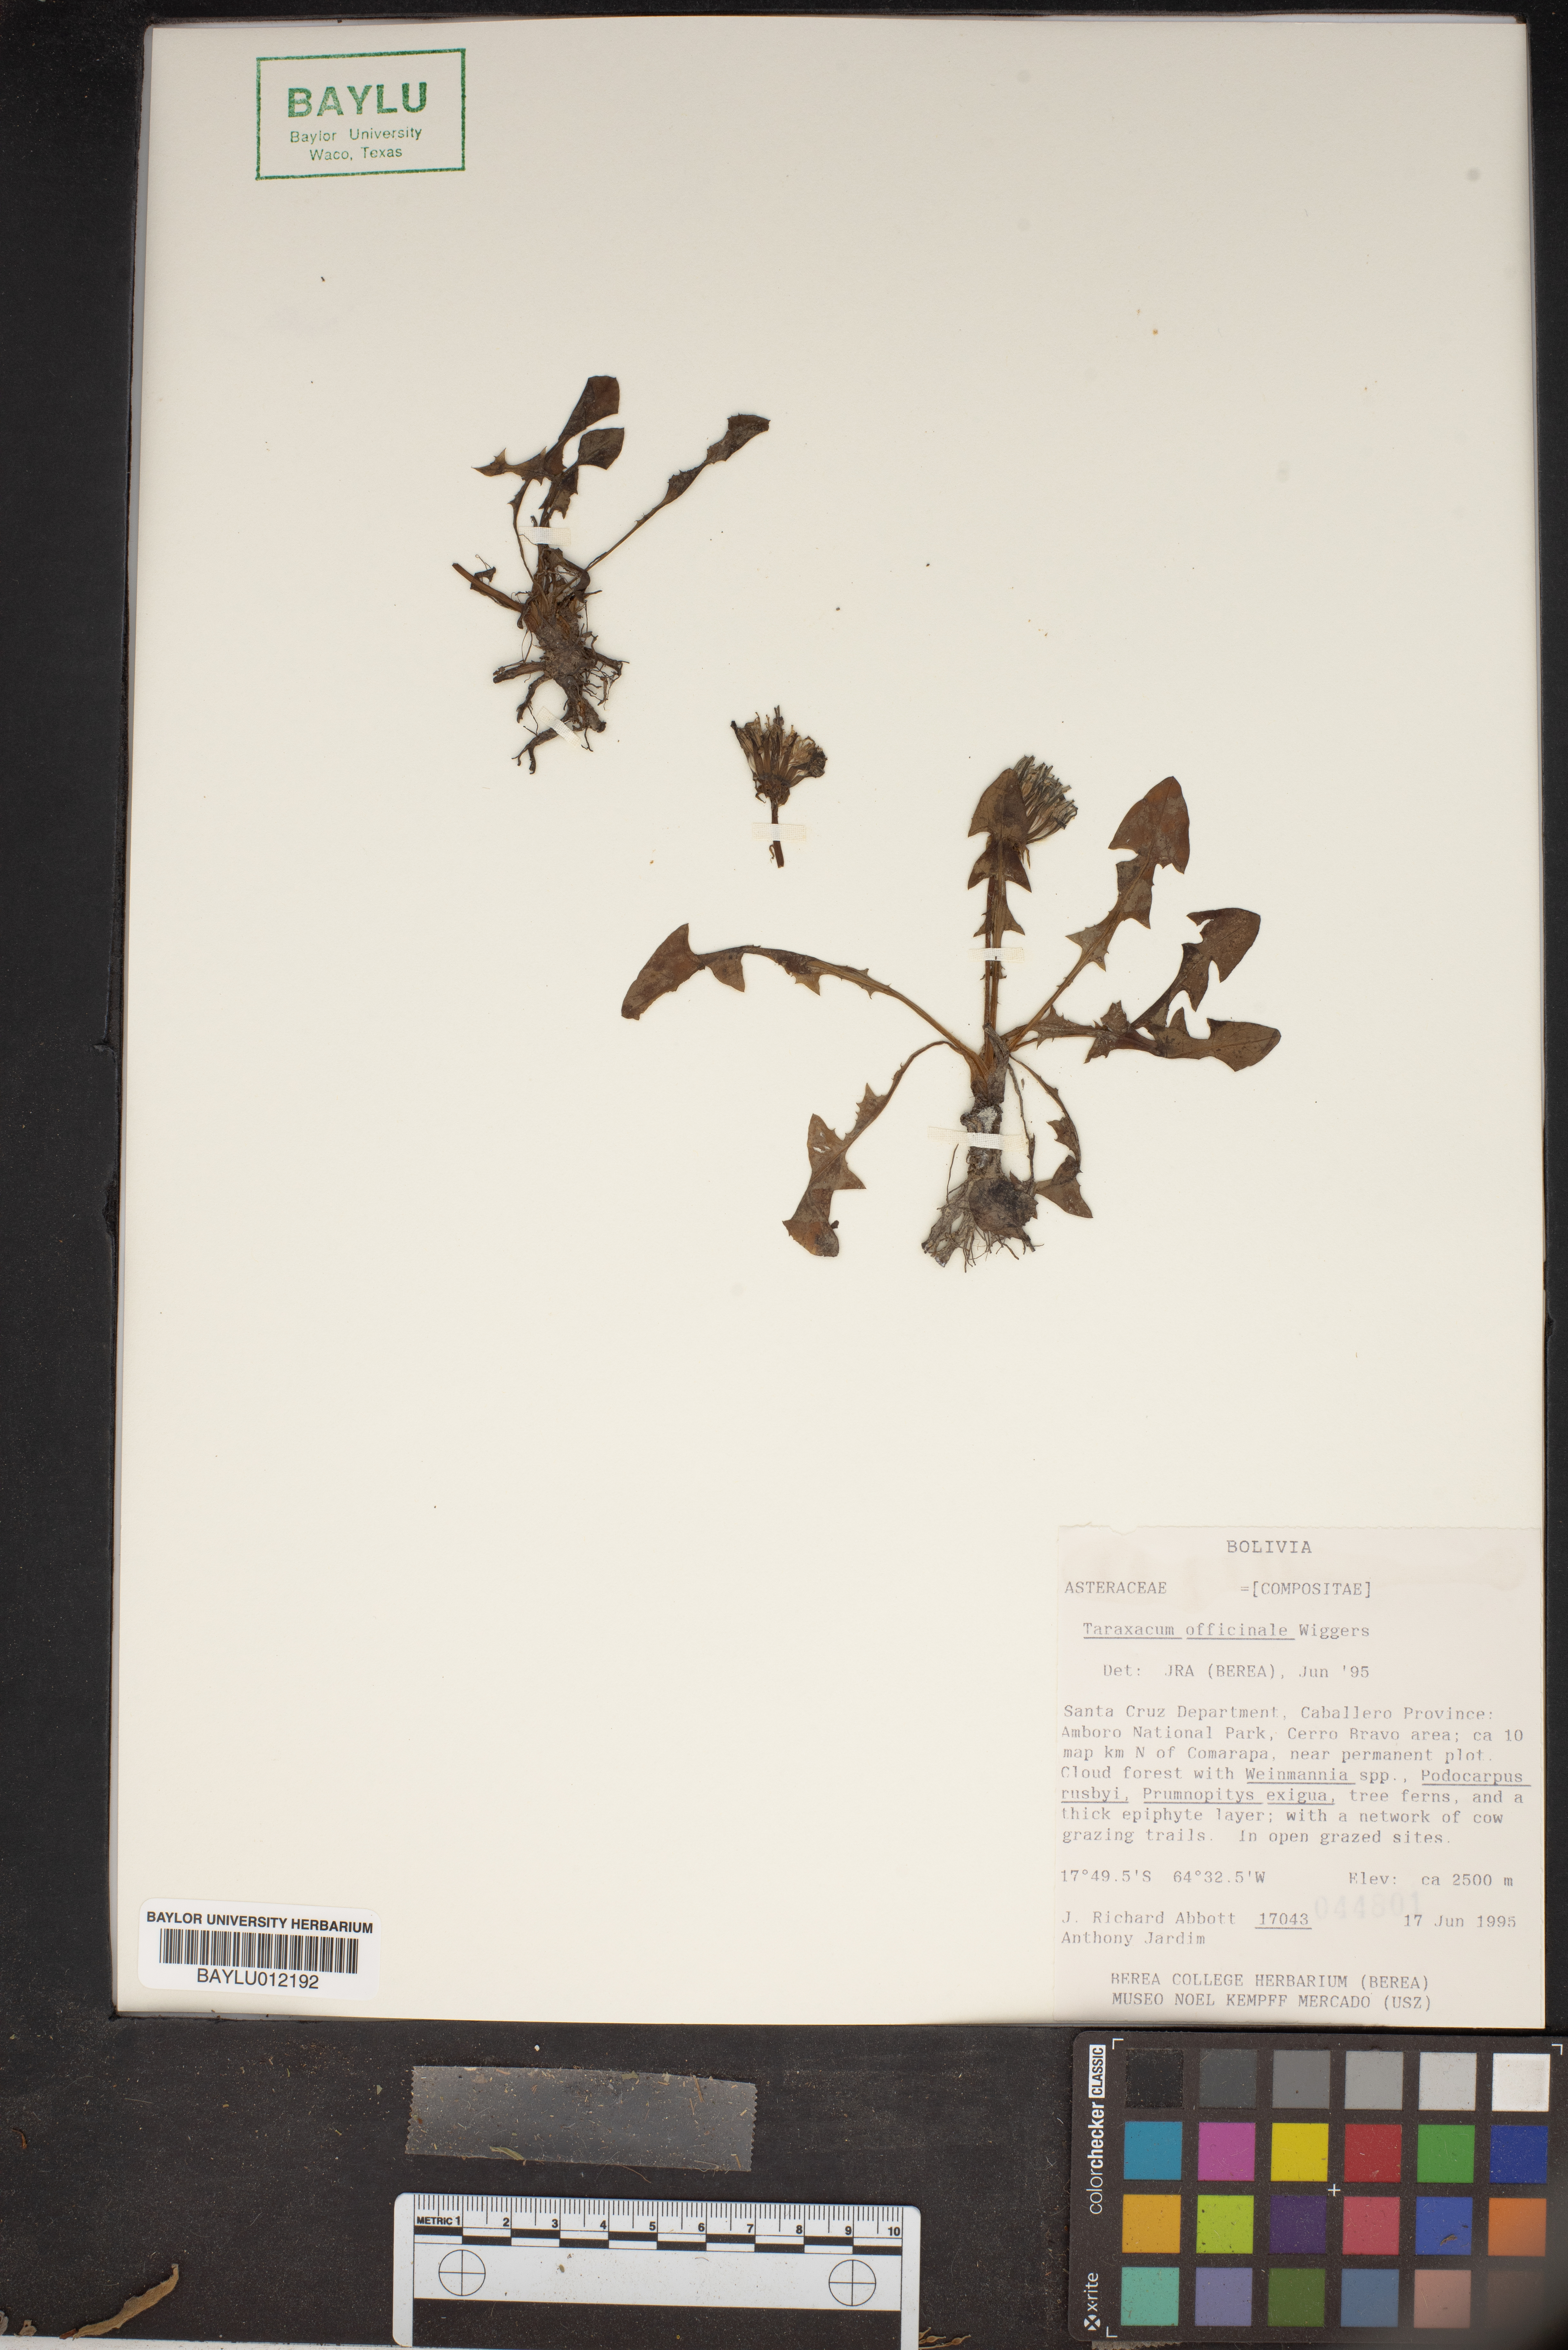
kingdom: Plantae
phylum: Tracheophyta
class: Magnoliopsida
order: Asterales
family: Asteraceae
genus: Taraxacum
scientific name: Taraxacum officinale
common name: Common dandelion
